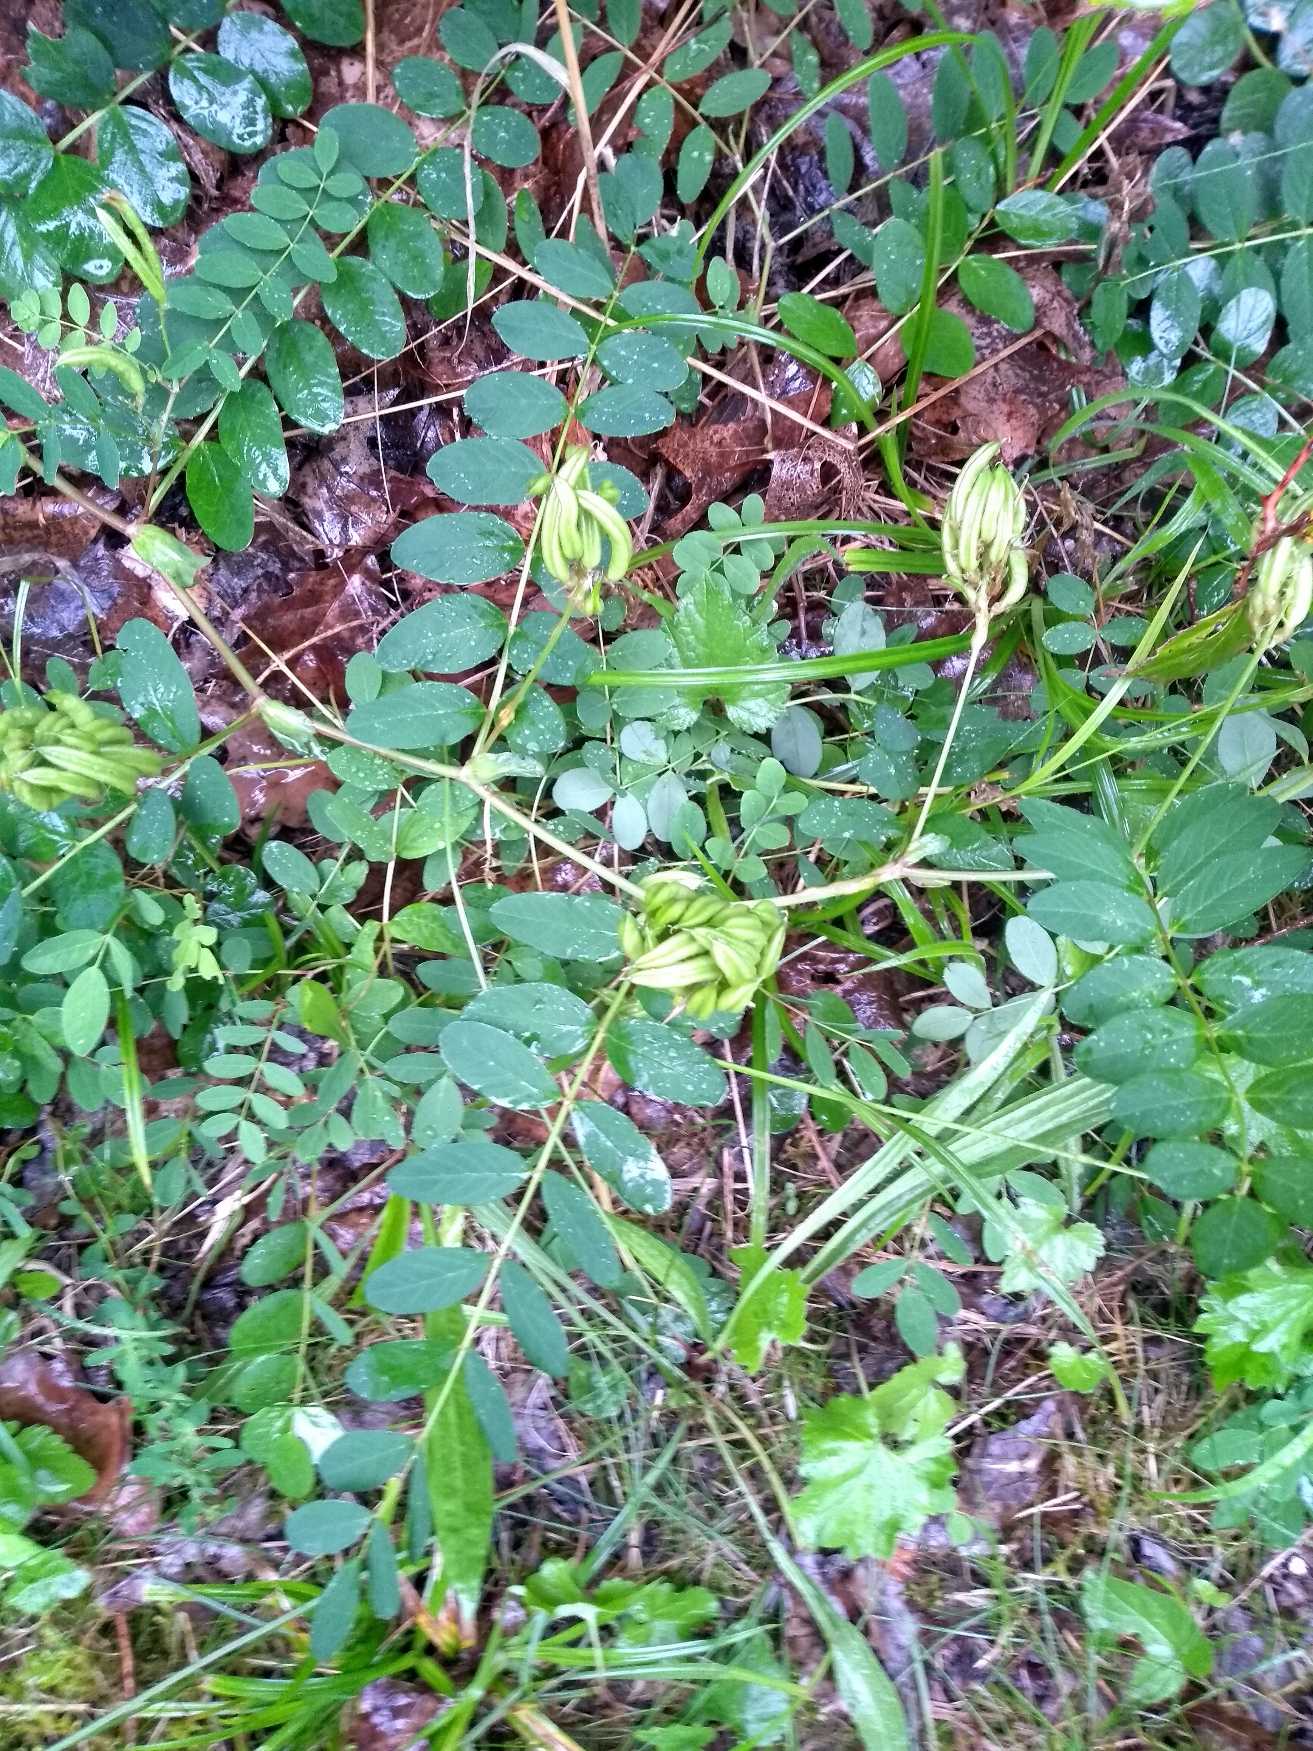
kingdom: Plantae
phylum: Tracheophyta
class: Magnoliopsida
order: Fabales
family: Fabaceae
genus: Astragalus
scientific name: Astragalus glycyphyllos
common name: Sød astragel
